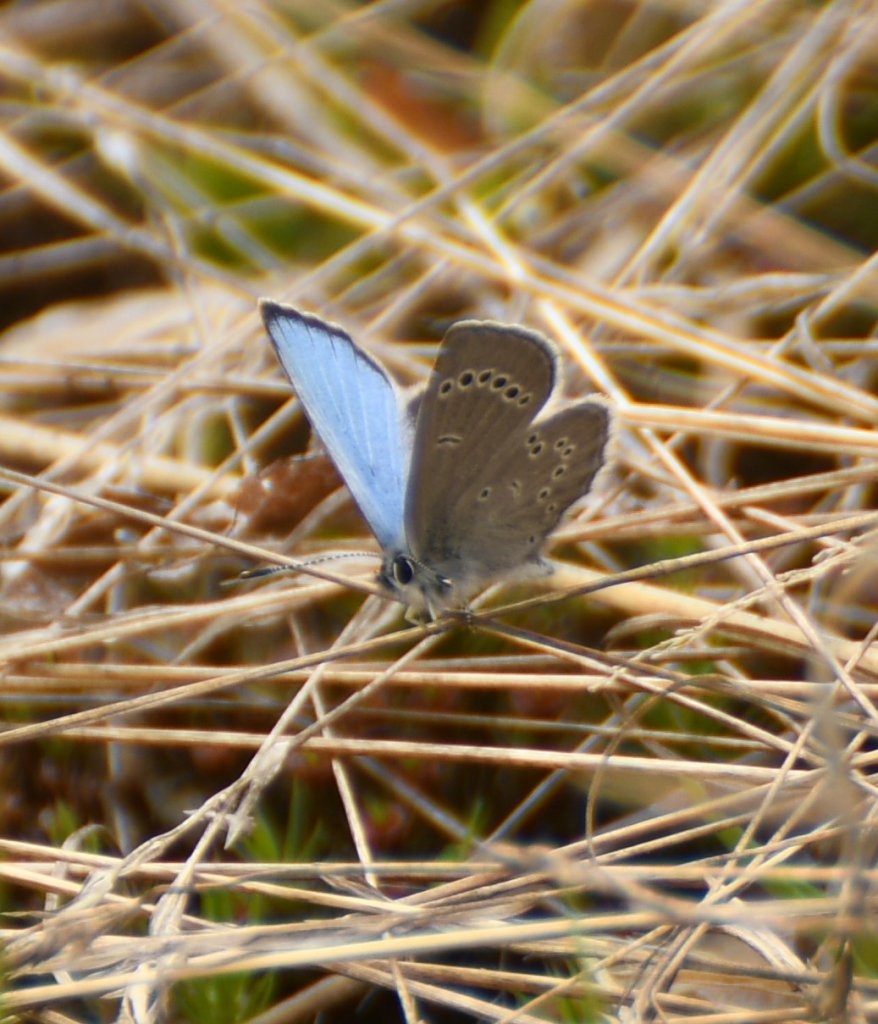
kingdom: Animalia
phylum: Arthropoda
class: Insecta
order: Lepidoptera
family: Lycaenidae
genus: Glaucopsyche
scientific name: Glaucopsyche lygdamus
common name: Silvery Blue
